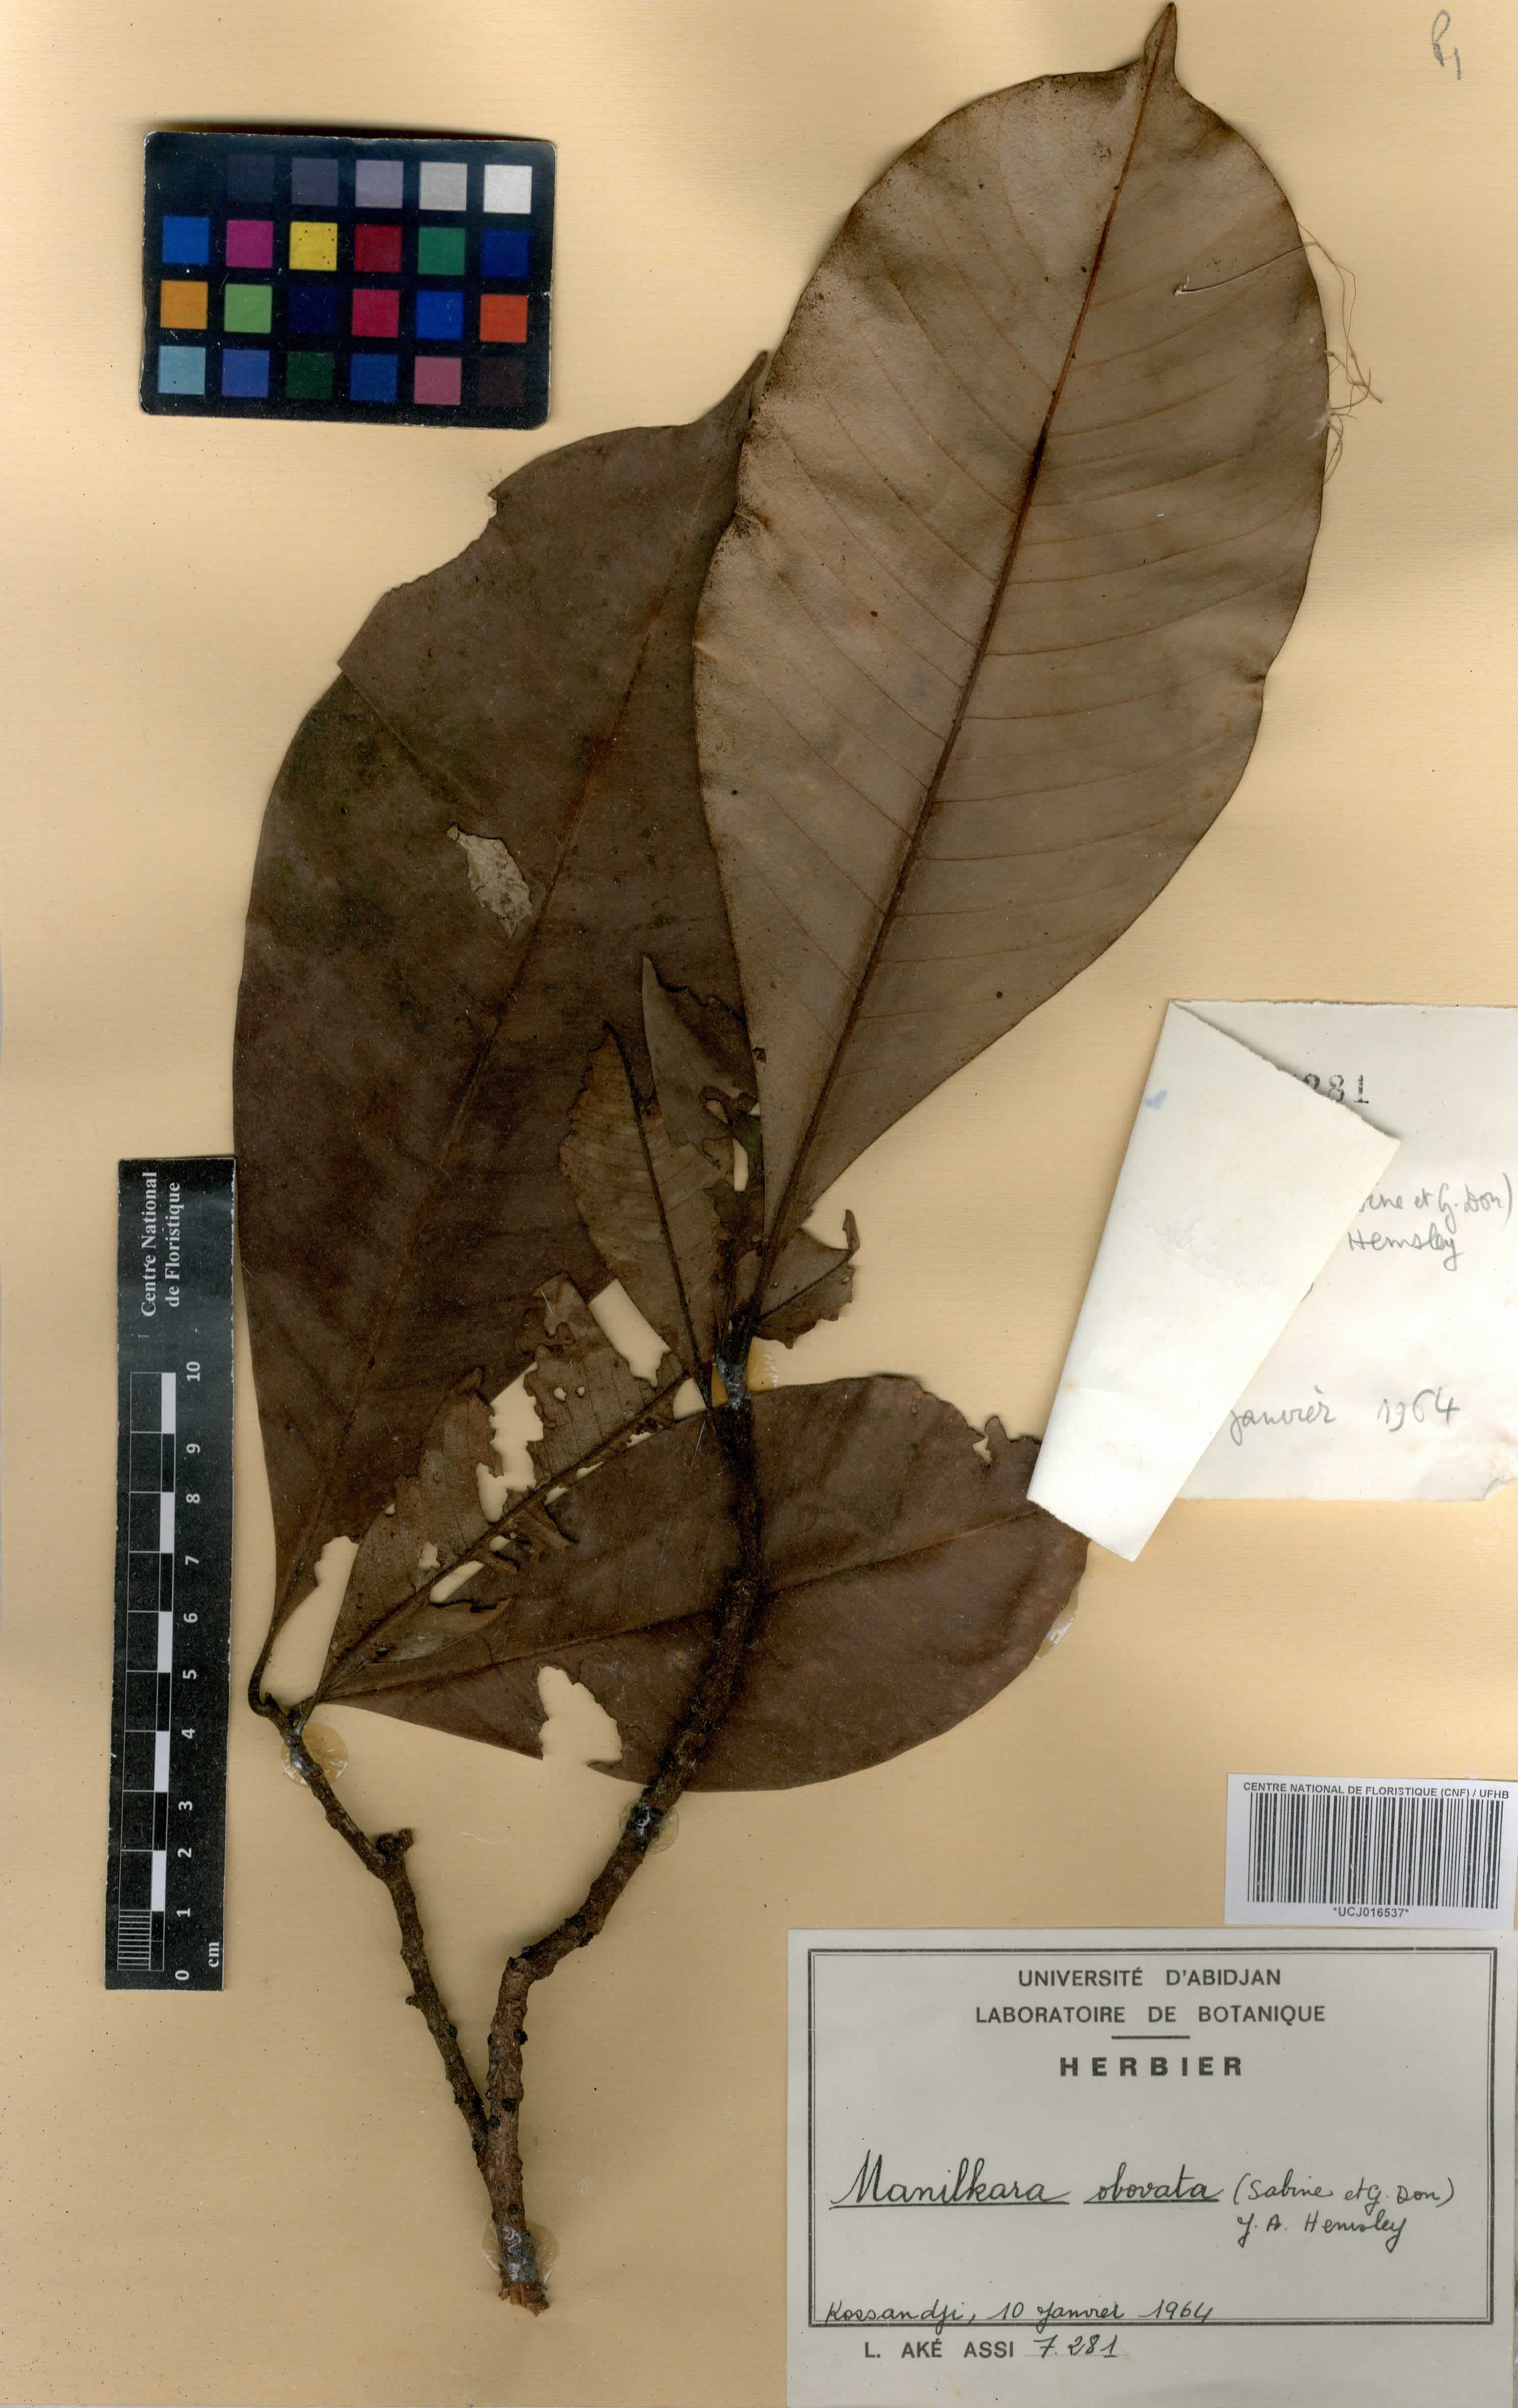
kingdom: Plantae
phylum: Tracheophyta
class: Magnoliopsida
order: Ericales
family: Sapotaceae
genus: Manilkara
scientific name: Manilkara obovata
